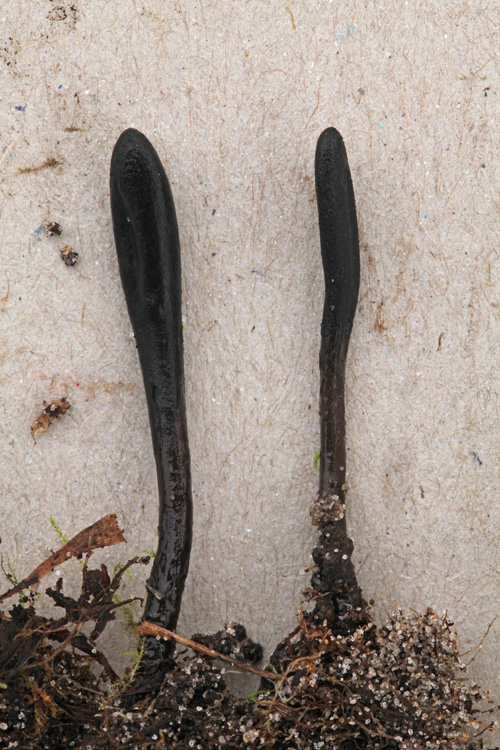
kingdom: Fungi
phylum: Ascomycota
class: Geoglossomycetes
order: Geoglossales
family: Geoglossaceae
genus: Glutinoglossum
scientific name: Glutinoglossum glutinosum
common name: slimet jordtunge
